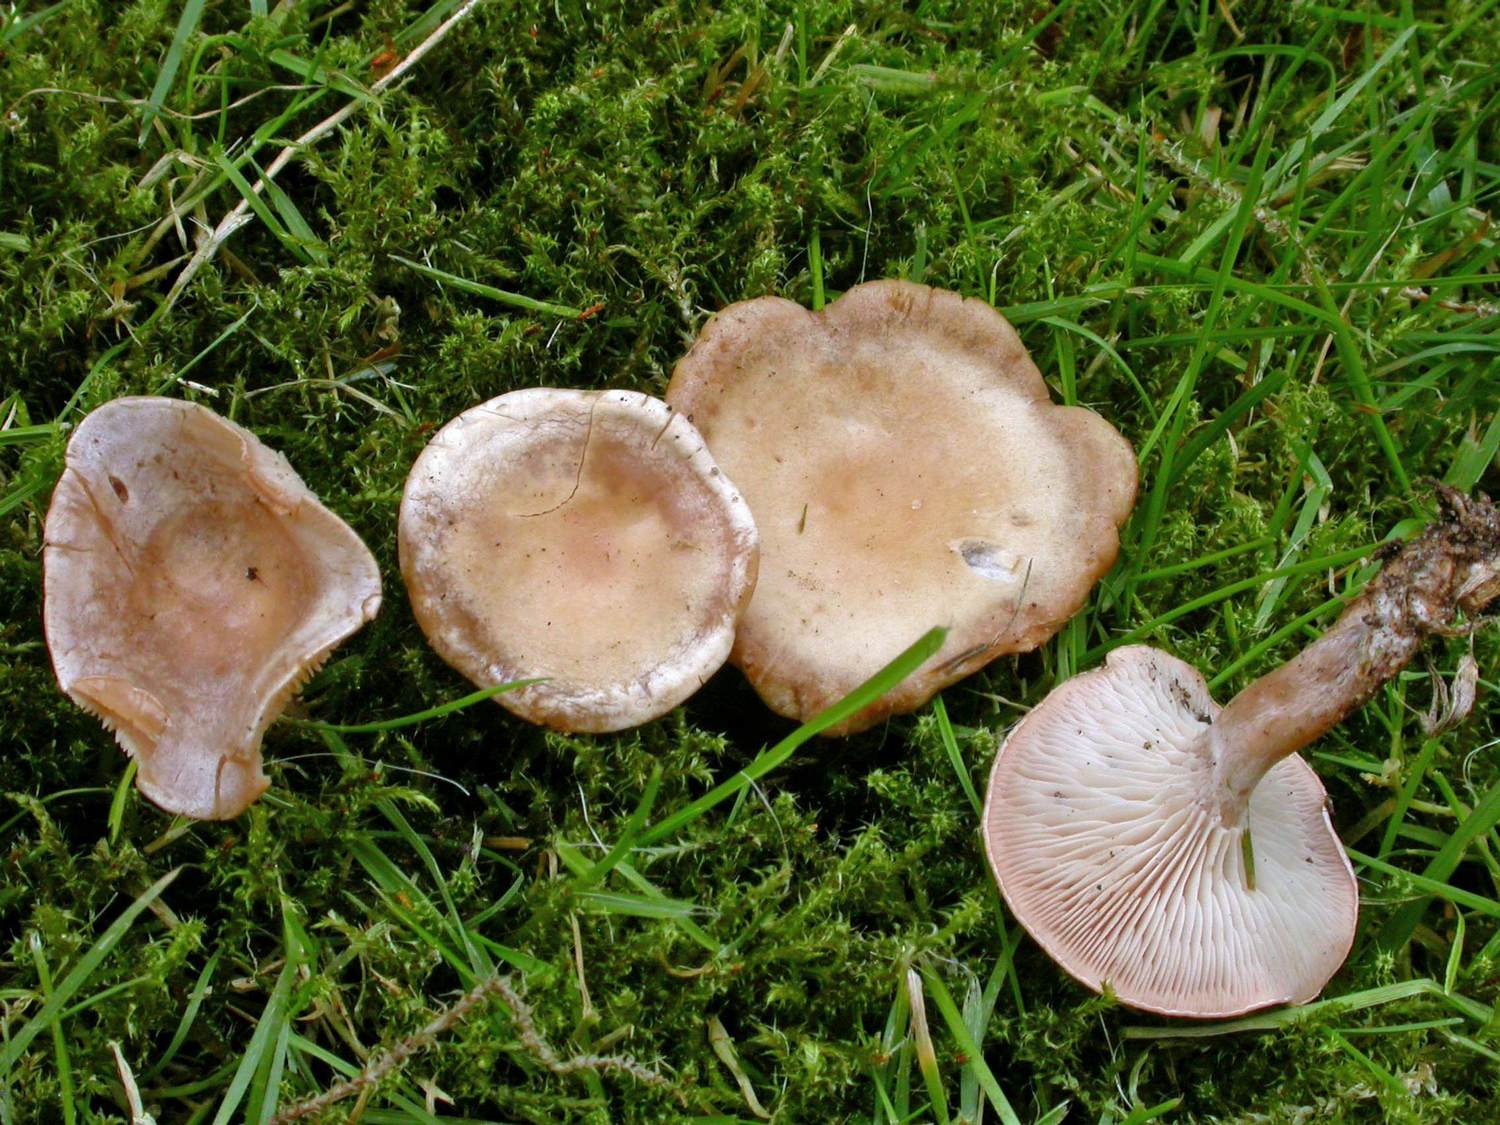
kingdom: Fungi
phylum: Basidiomycota
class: Agaricomycetes
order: Agaricales
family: Tricholomataceae
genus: Clitocybe
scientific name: Clitocybe rivulosa
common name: eng-tragthat
